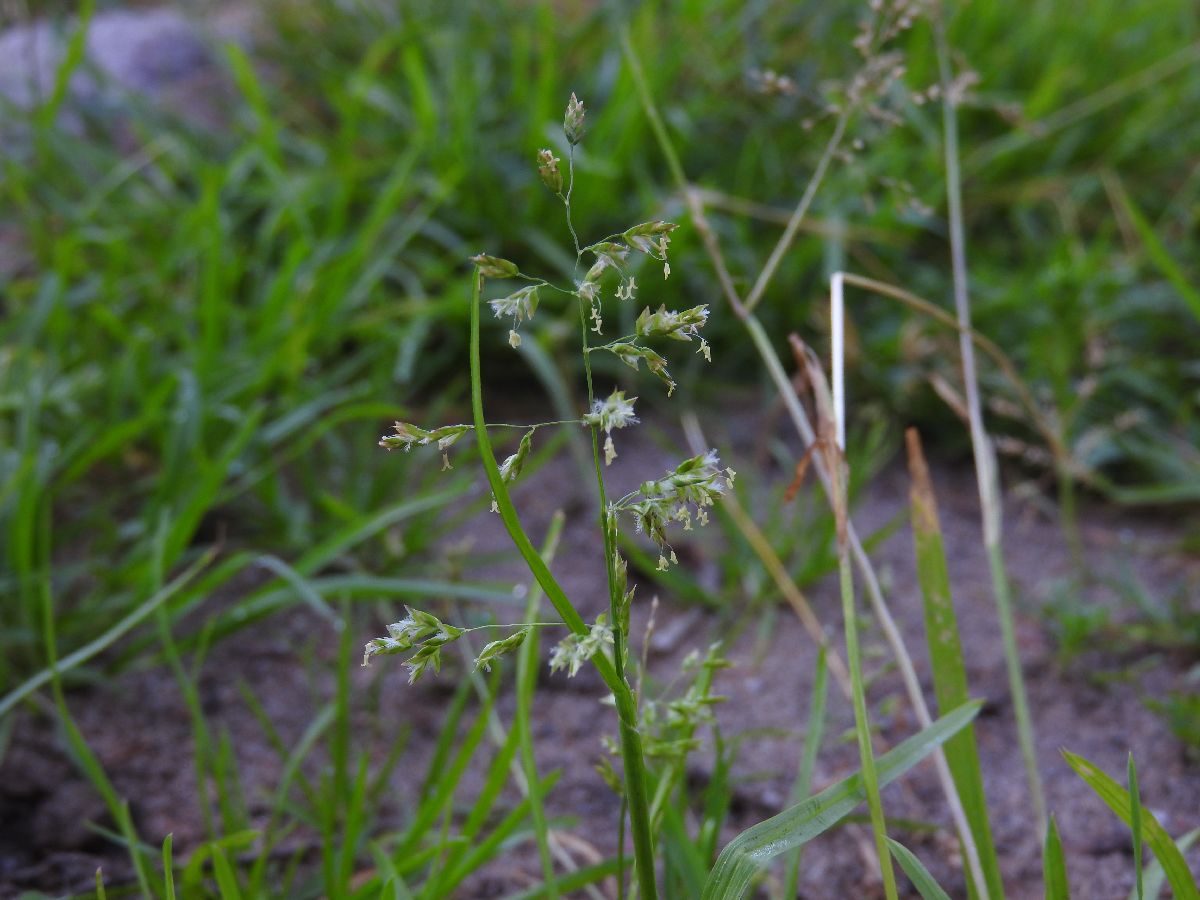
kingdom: Plantae
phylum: Tracheophyta
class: Liliopsida
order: Poales
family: Poaceae
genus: Poa
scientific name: Poa supina
